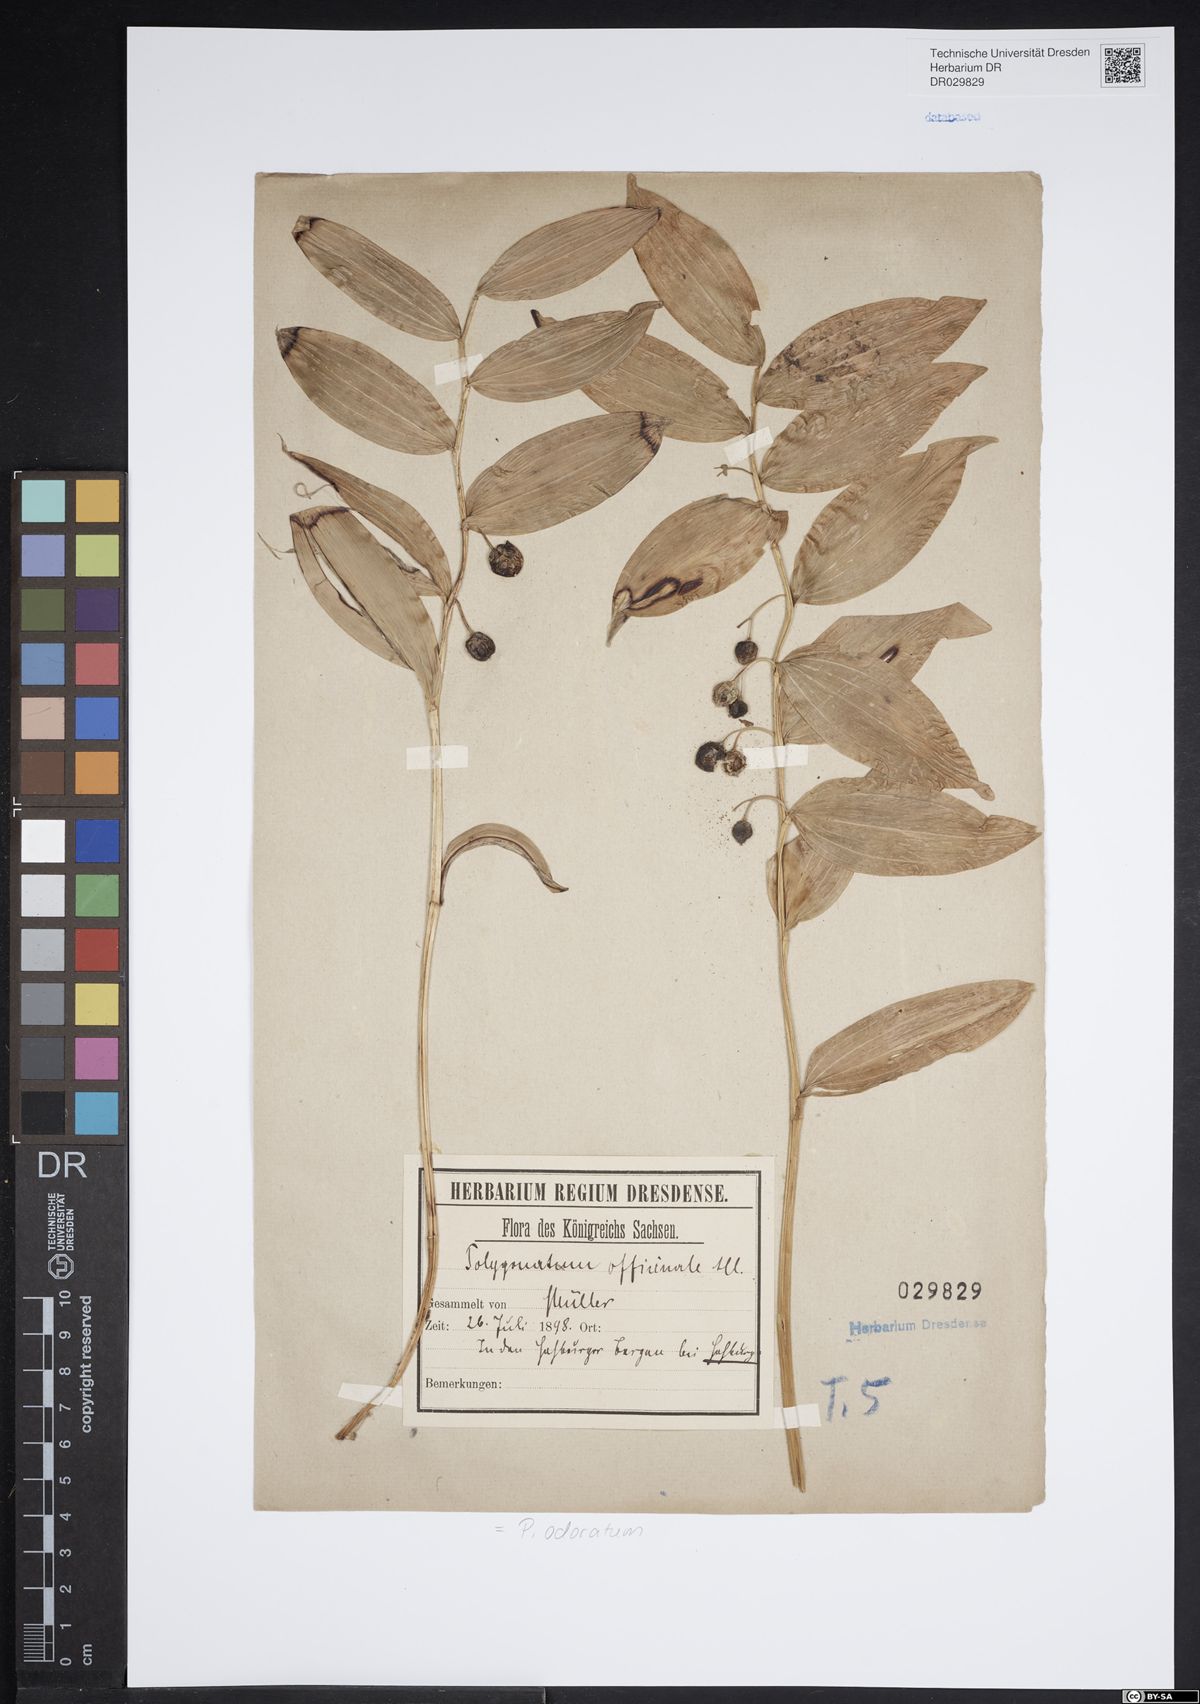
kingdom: Plantae
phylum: Tracheophyta
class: Liliopsida
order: Asparagales
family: Asparagaceae
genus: Polygonatum
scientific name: Polygonatum odoratum
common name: Angular solomon's-seal
